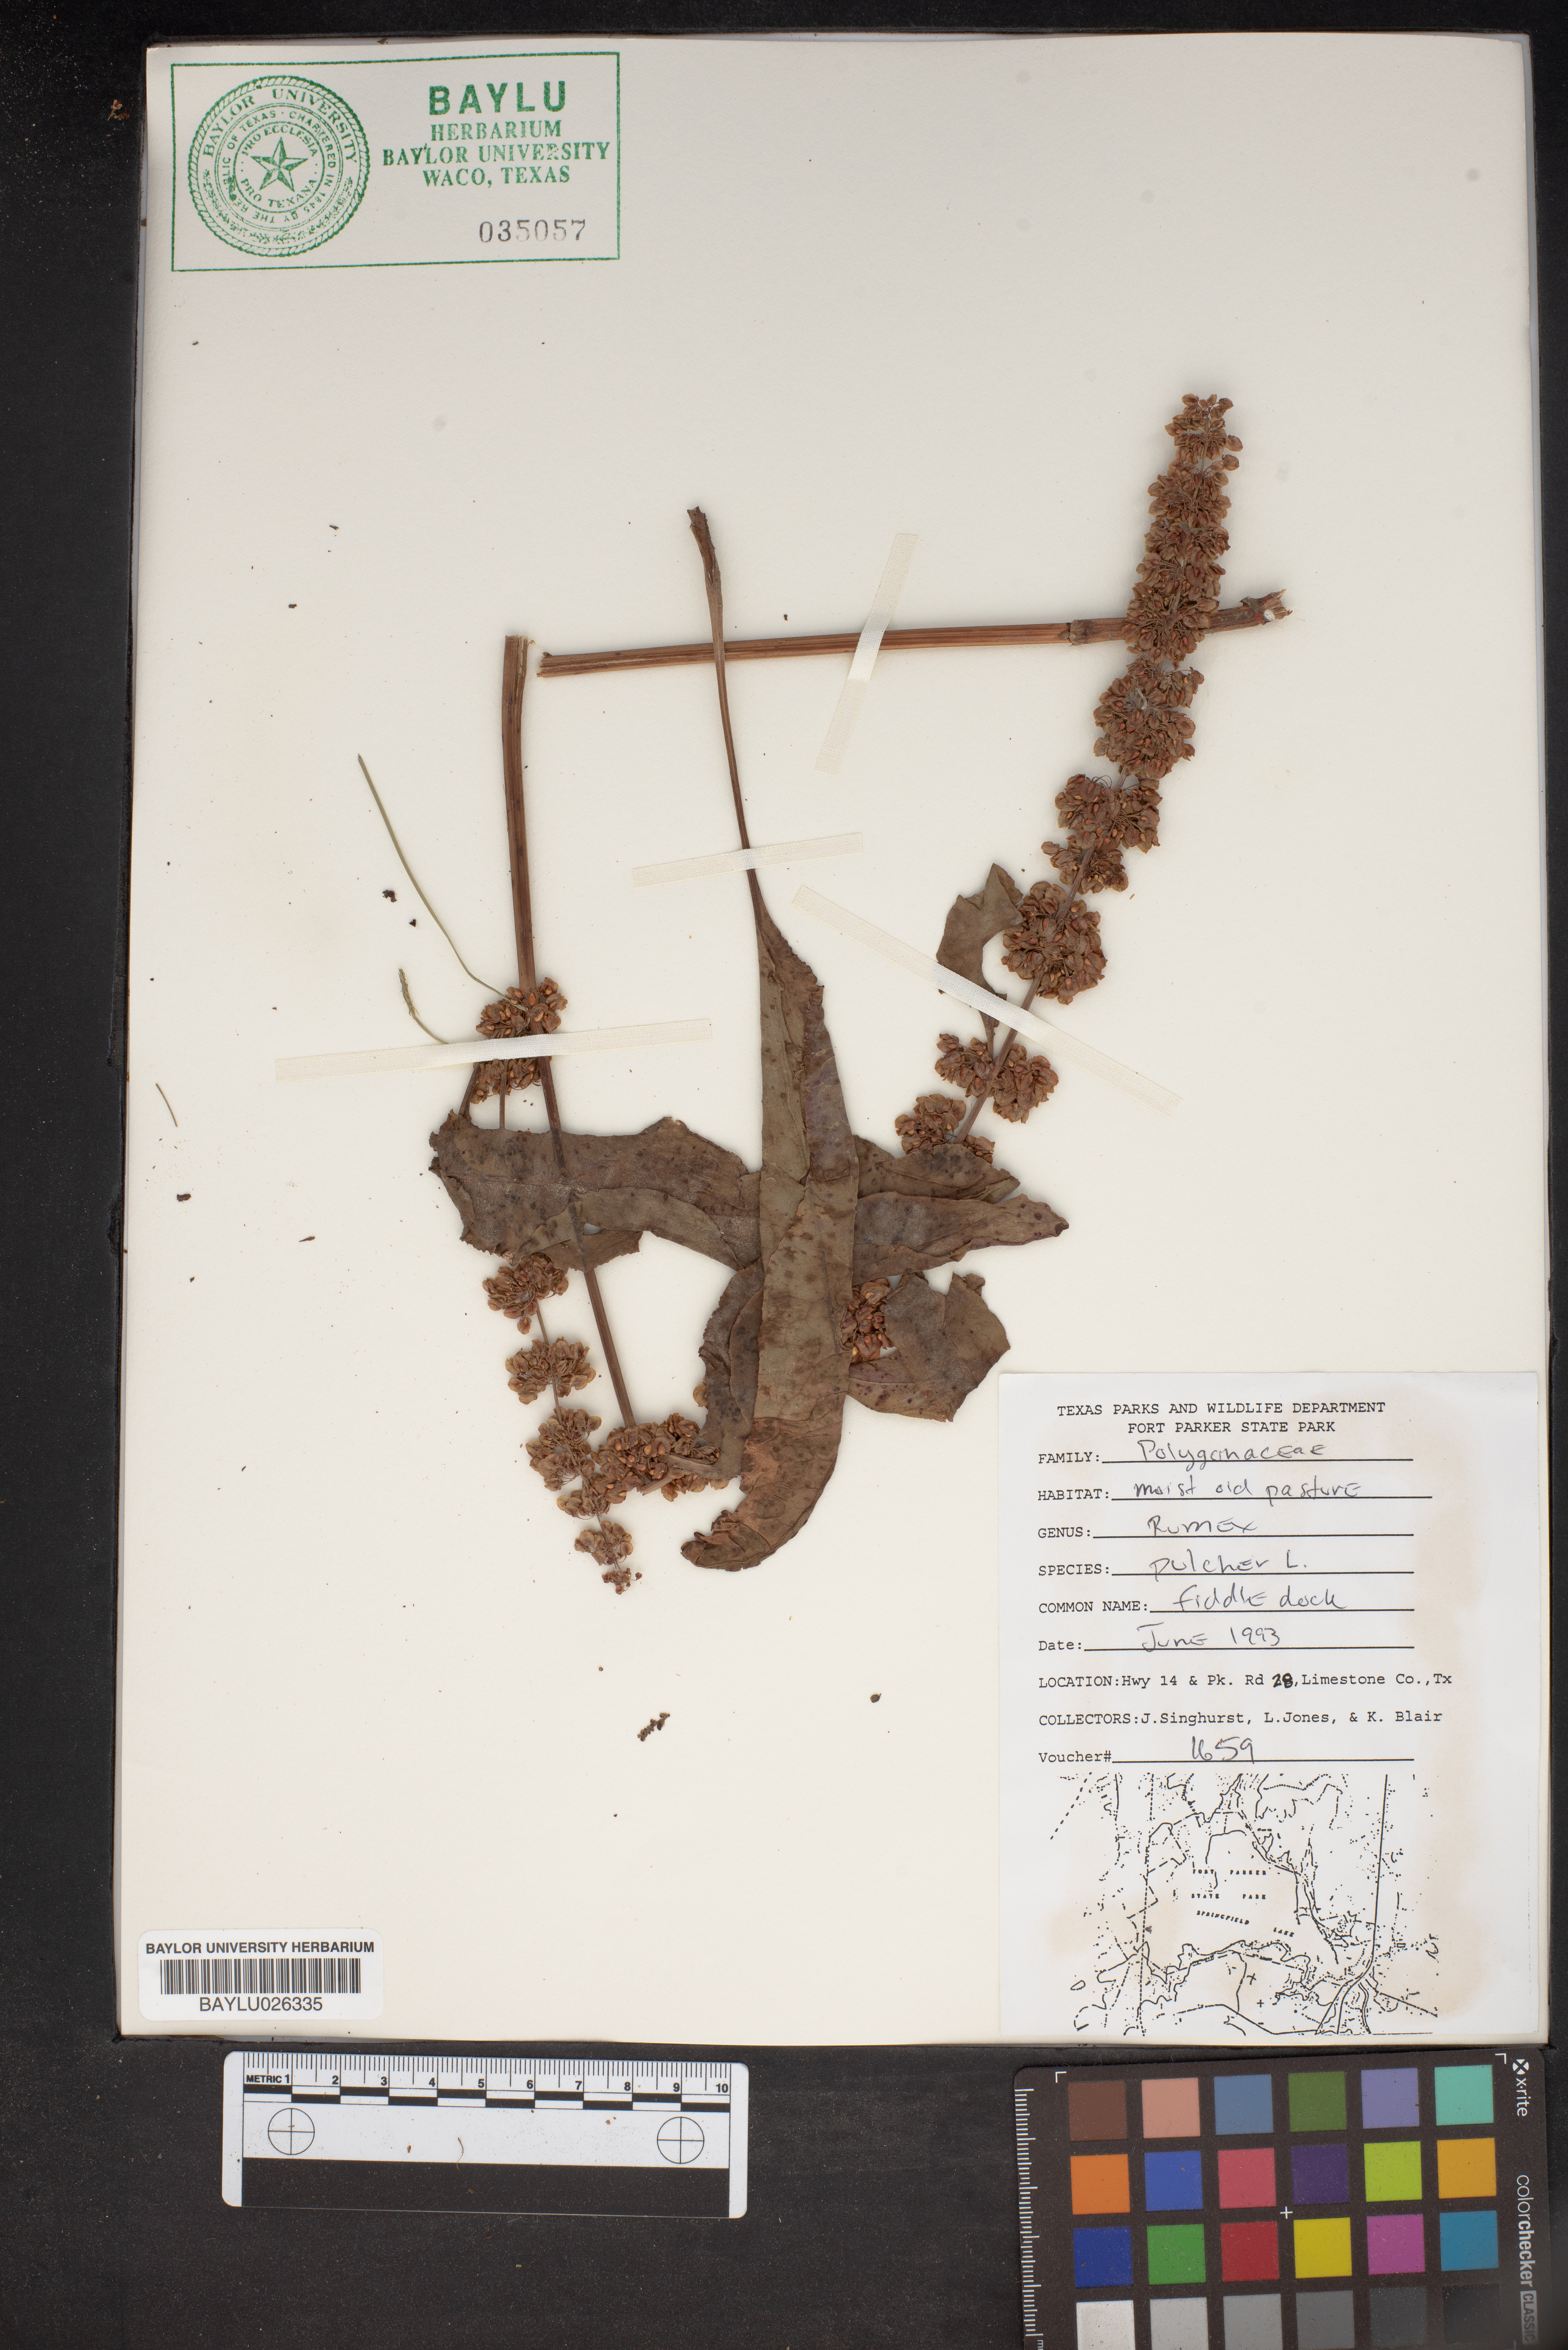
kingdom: Plantae
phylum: Tracheophyta
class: Magnoliopsida
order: Caryophyllales
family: Polygonaceae
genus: Rumex
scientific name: Rumex pulcher
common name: Fiddle dock
